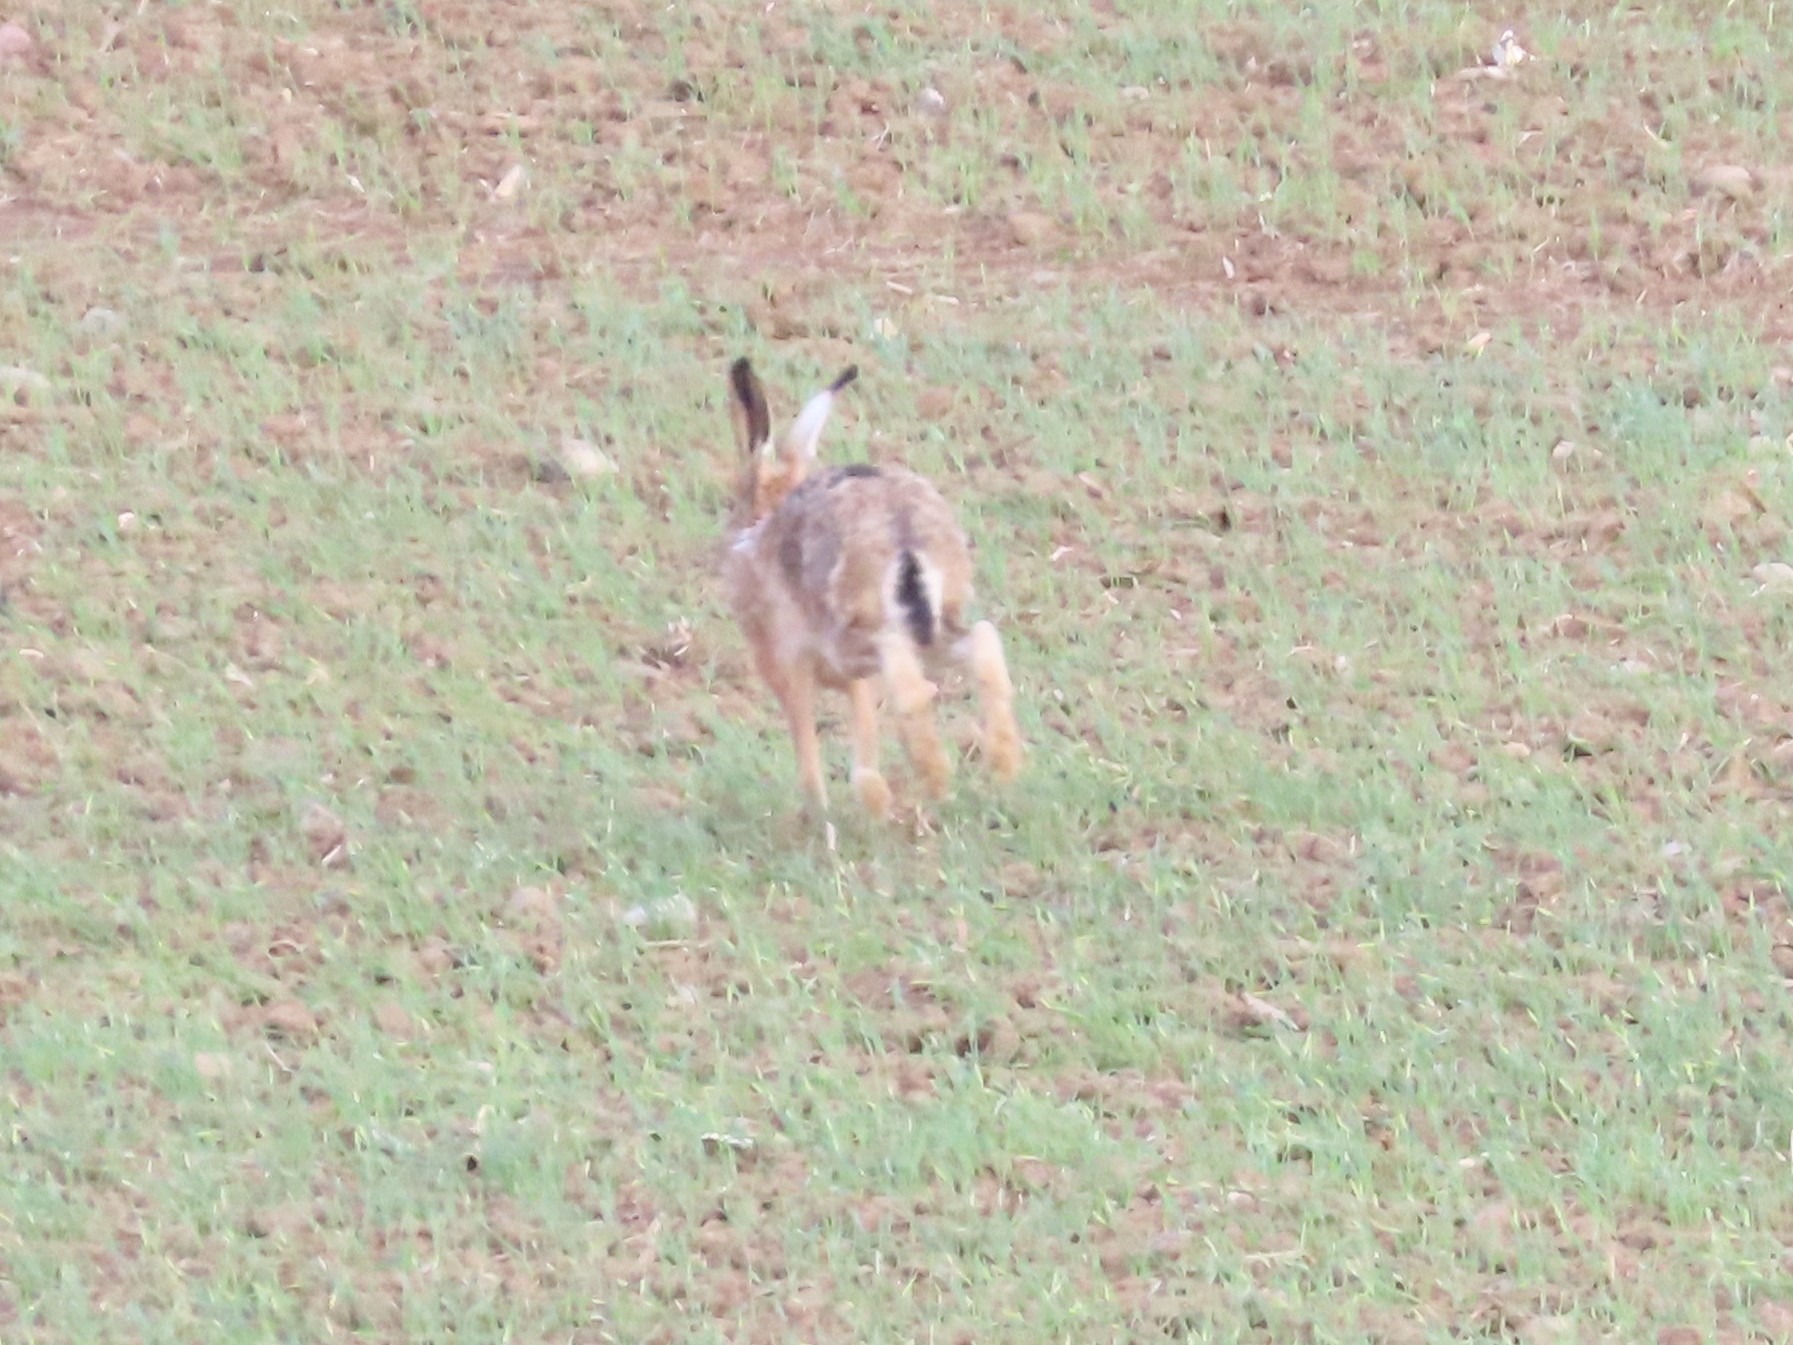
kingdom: Animalia
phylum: Chordata
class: Mammalia
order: Lagomorpha
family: Leporidae
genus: Lepus
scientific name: Lepus europaeus
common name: Hare
